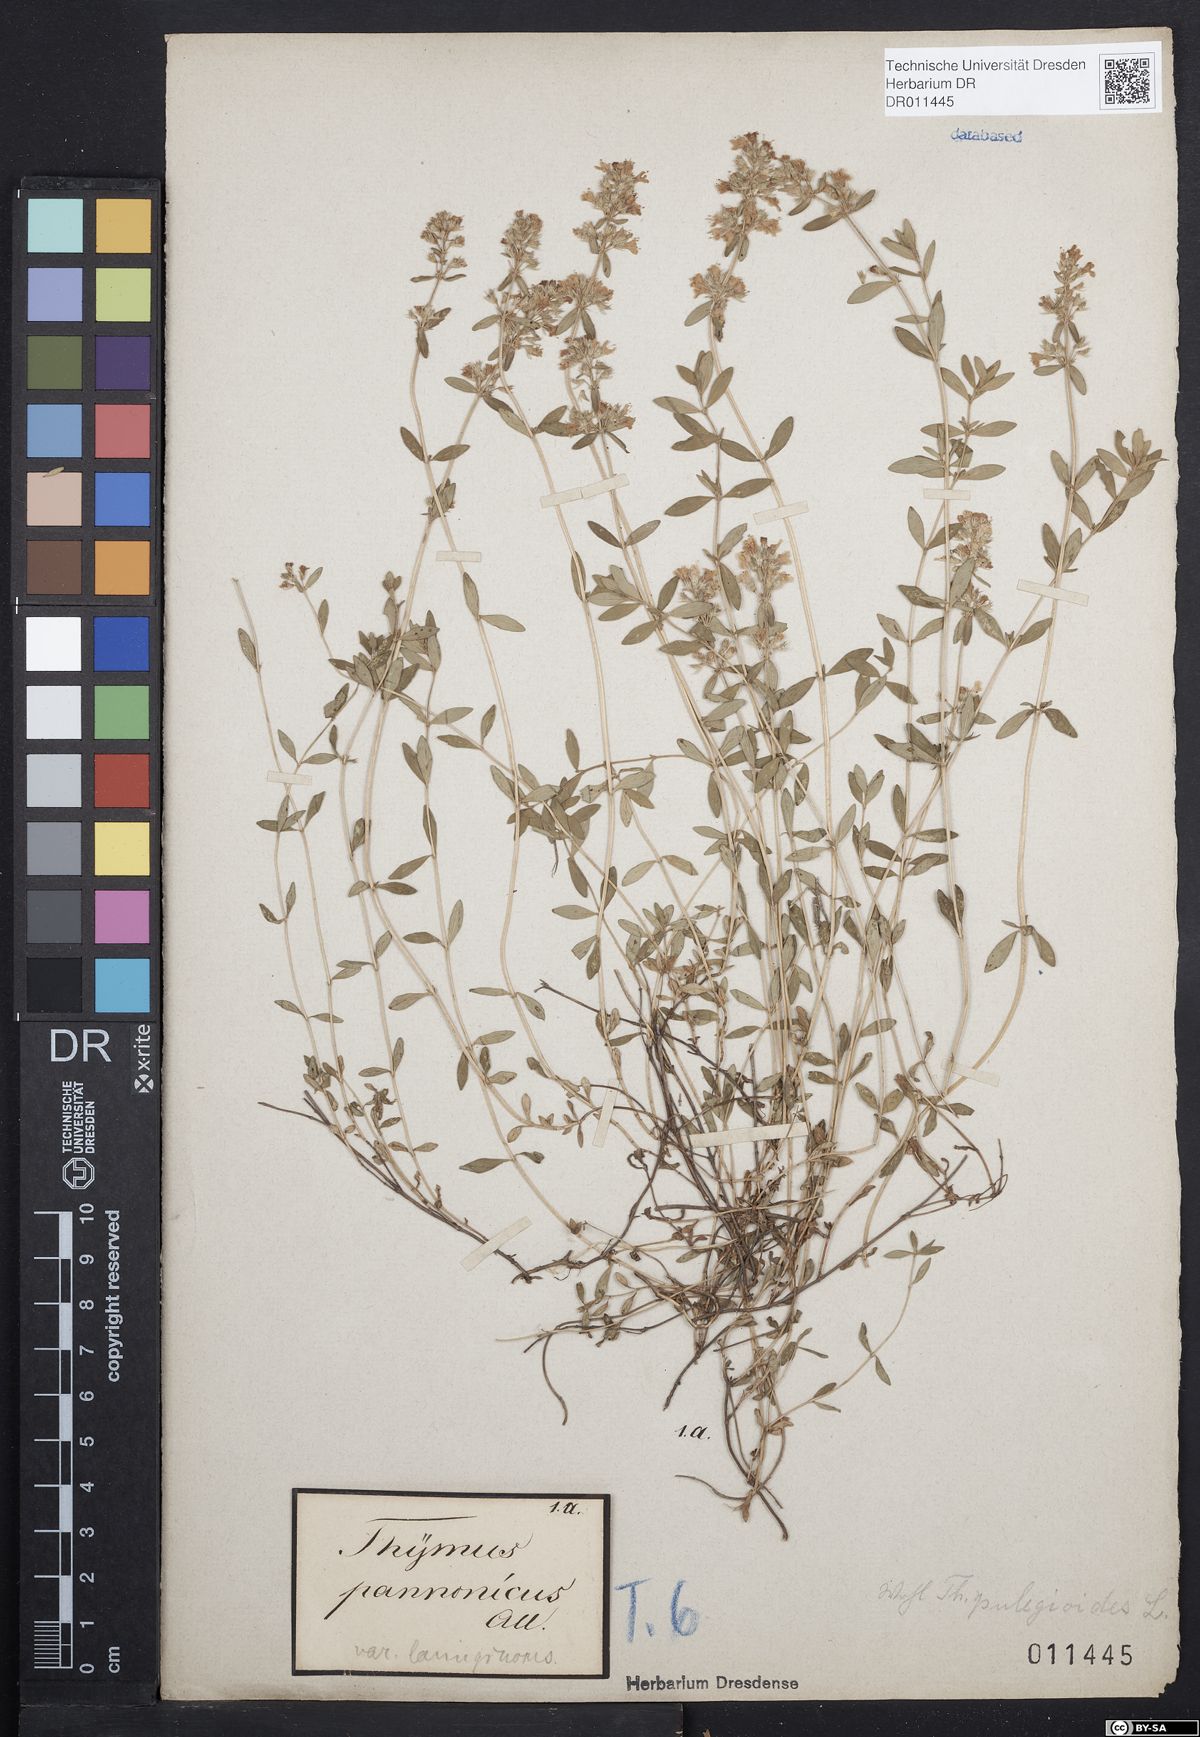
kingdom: Plantae
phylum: Tracheophyta
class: Magnoliopsida
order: Lamiales
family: Lamiaceae
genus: Thymus
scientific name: Thymus pannonicus
